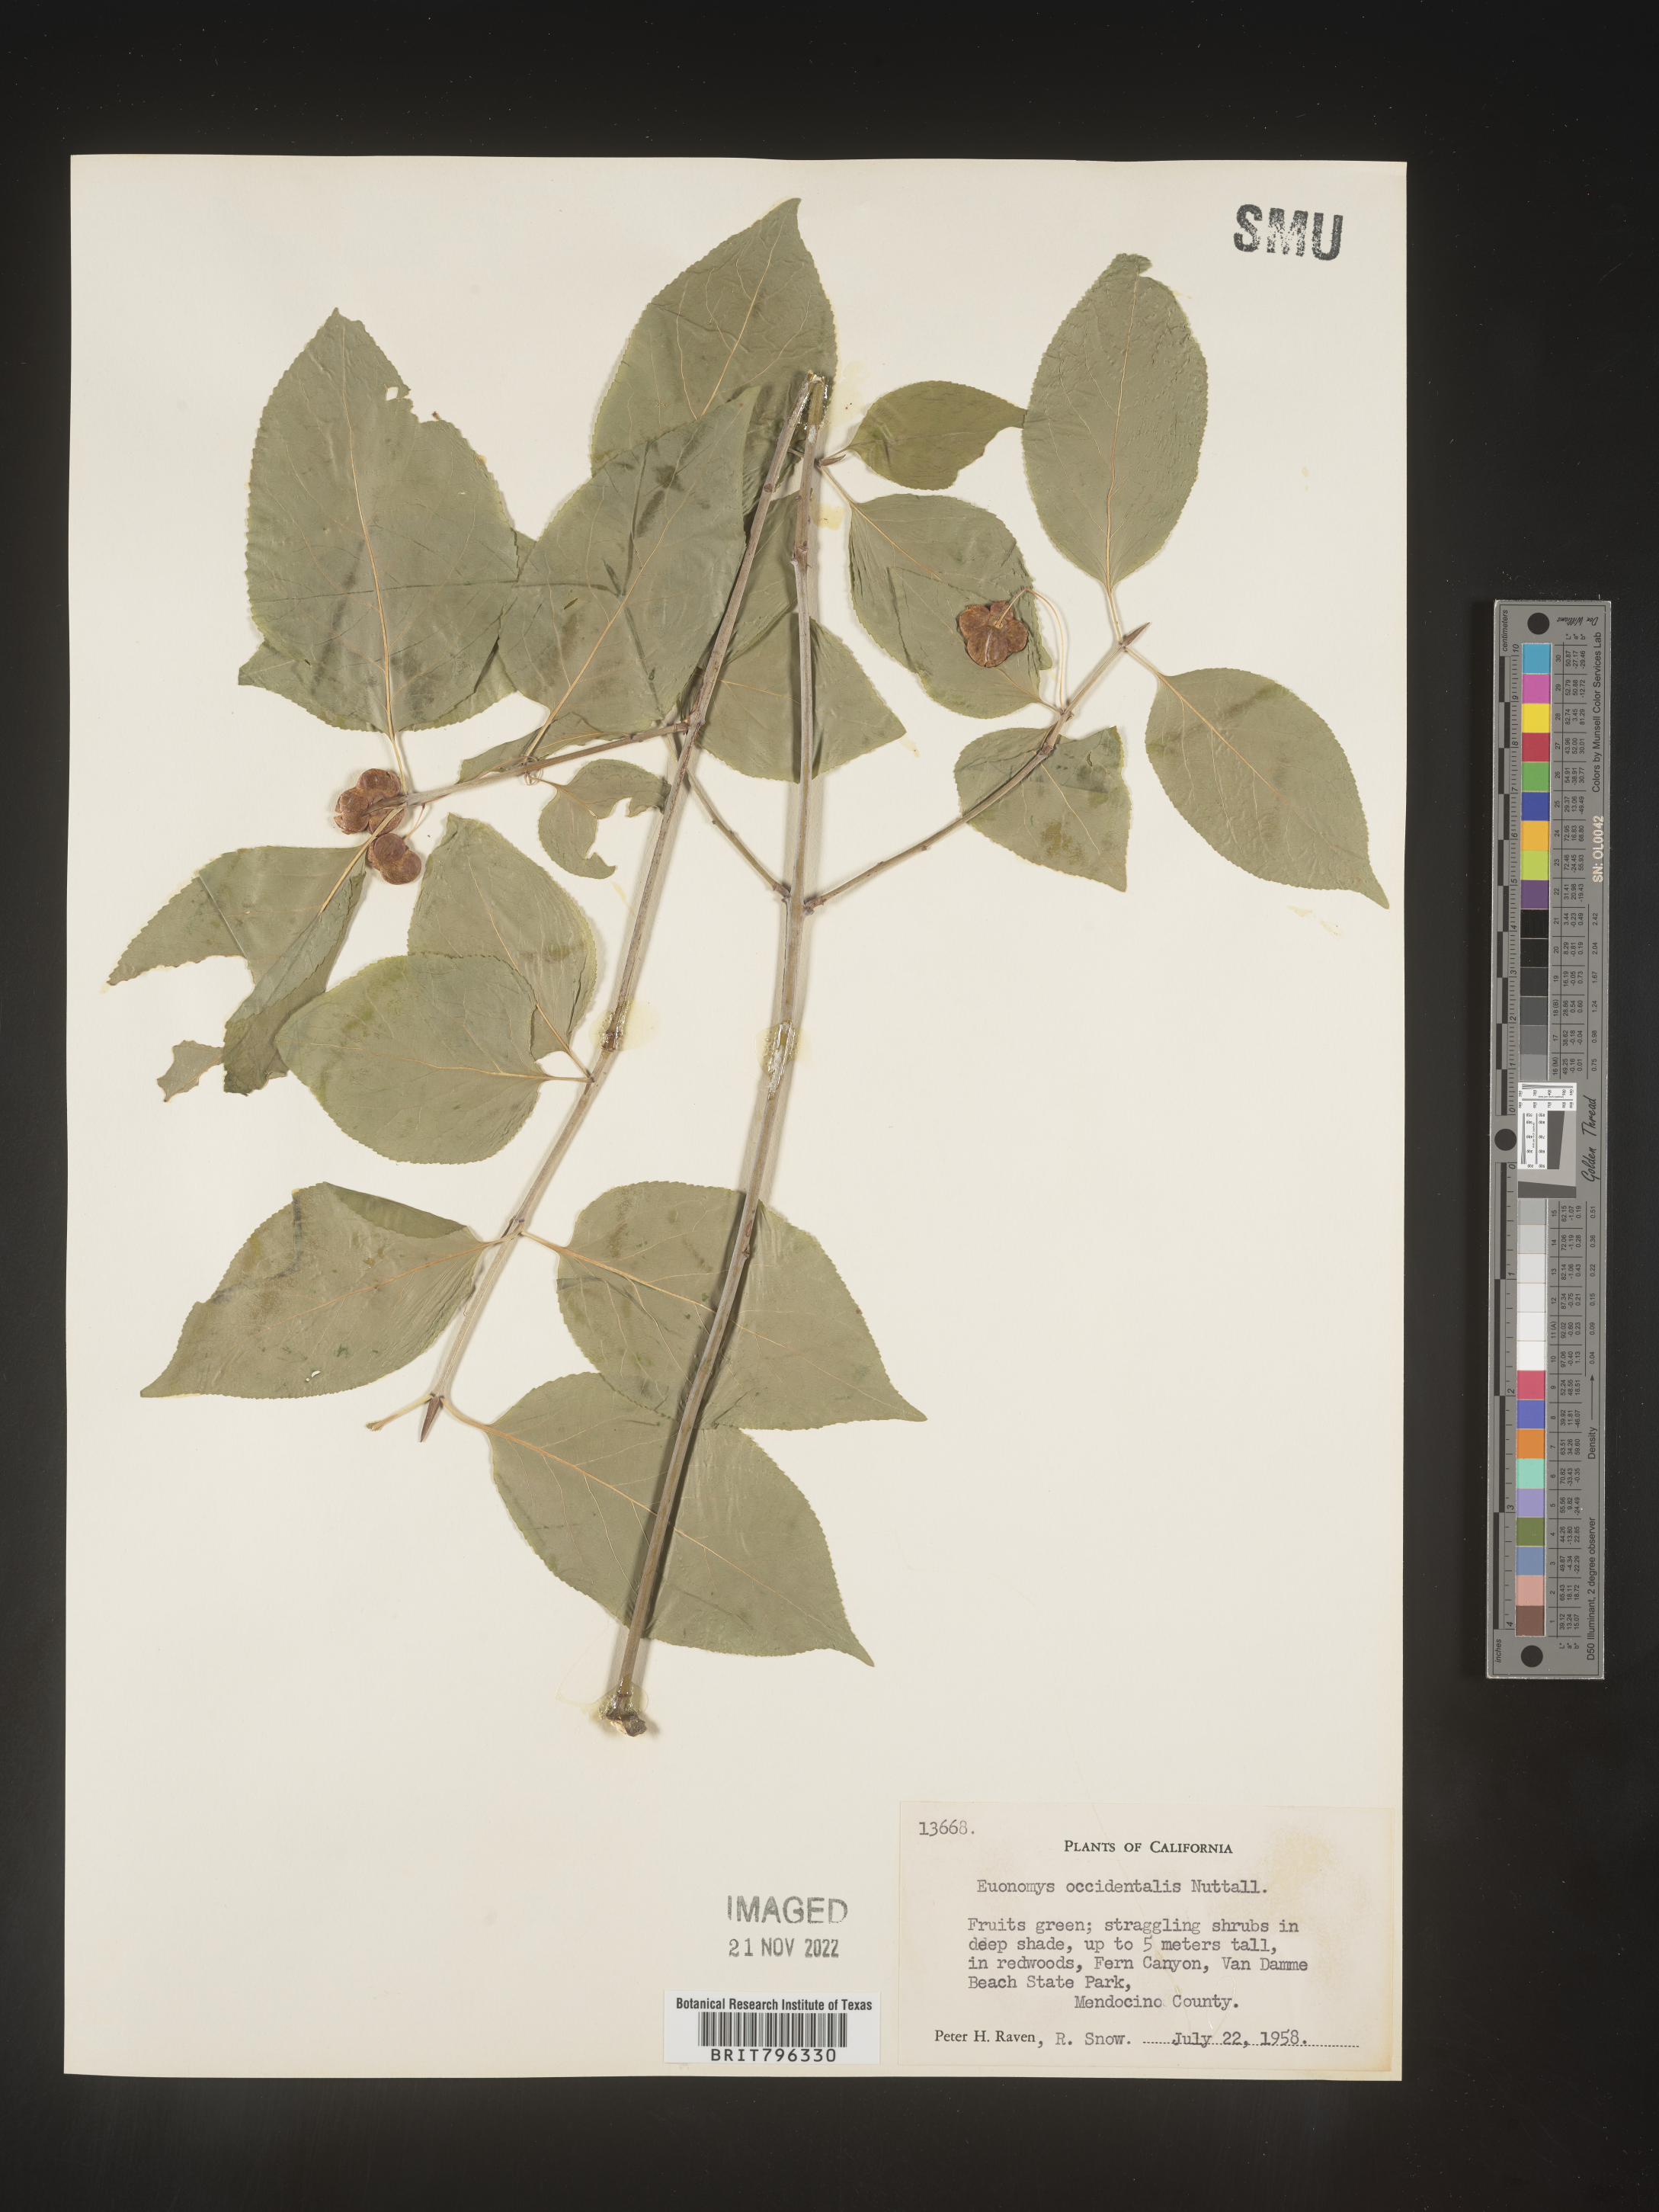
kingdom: Plantae
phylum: Tracheophyta
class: Magnoliopsida
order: Celastrales
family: Celastraceae
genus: Euonymus
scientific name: Euonymus occidentalis
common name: Western burningbush
